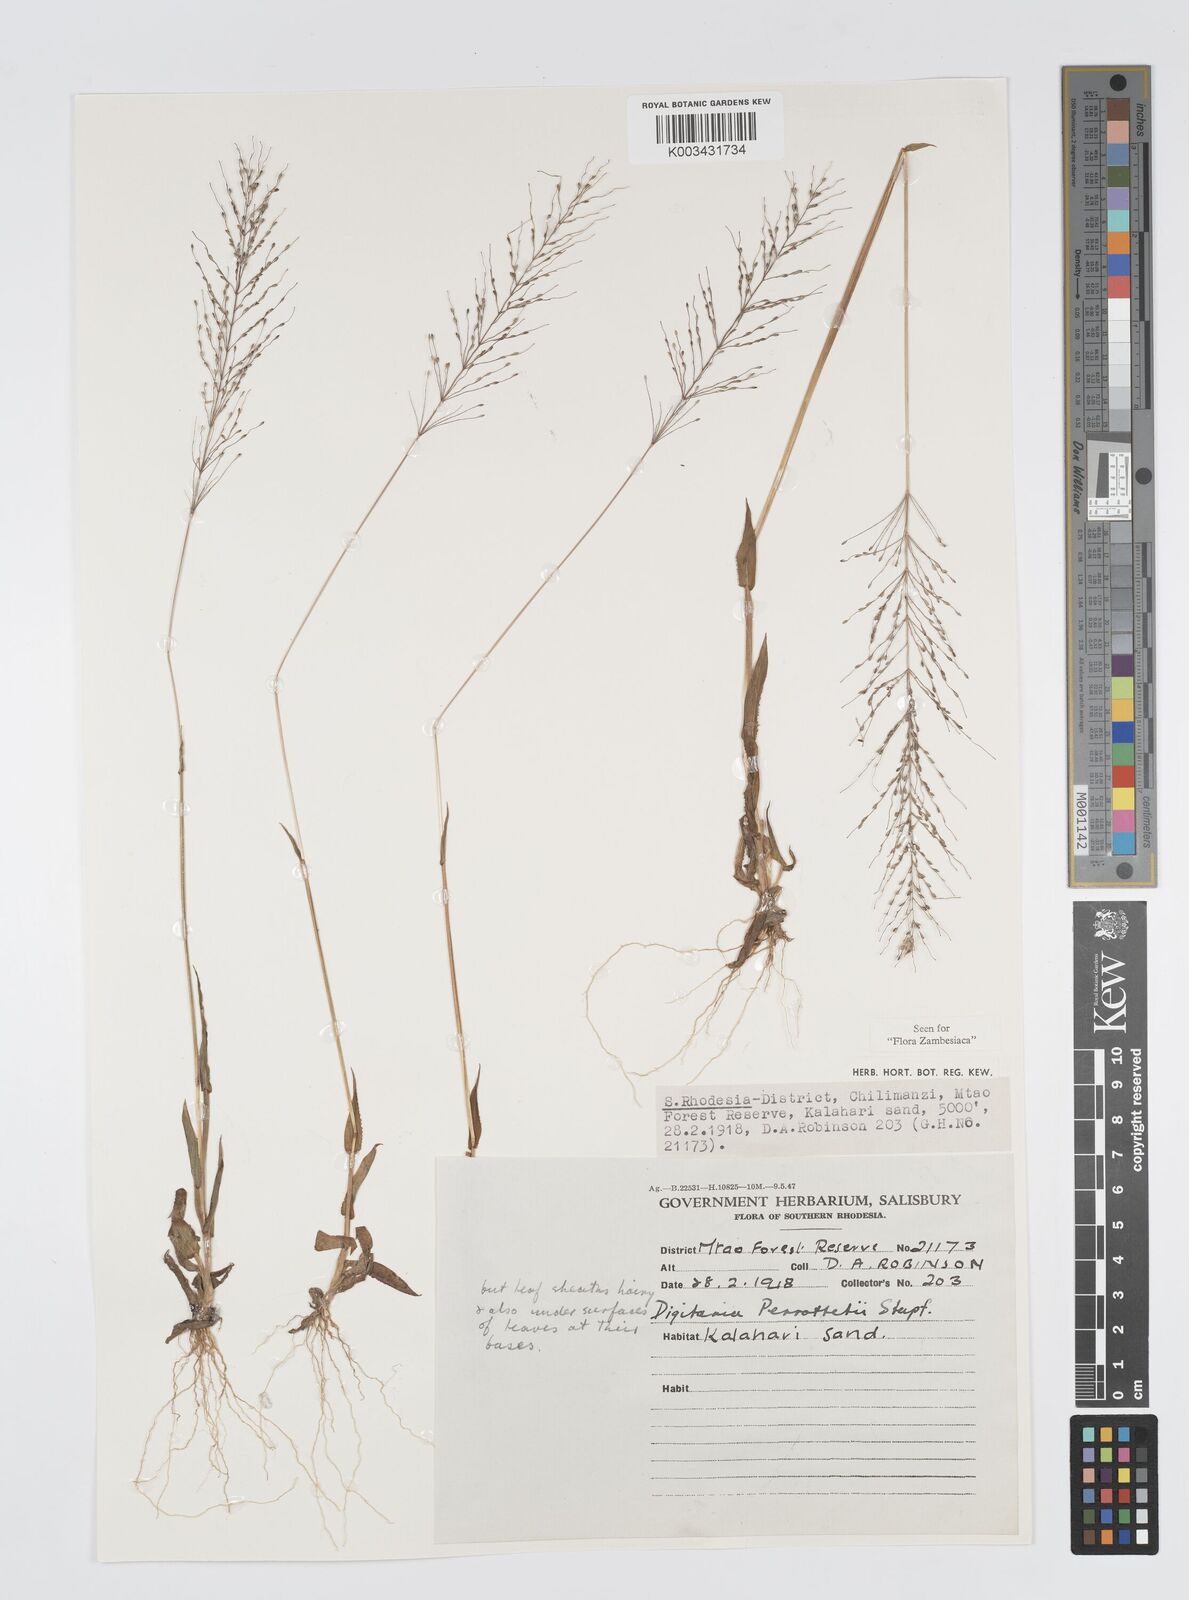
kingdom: Plantae
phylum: Tracheophyta
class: Liliopsida
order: Poales
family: Poaceae
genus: Digitaria
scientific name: Digitaria perrottetii
